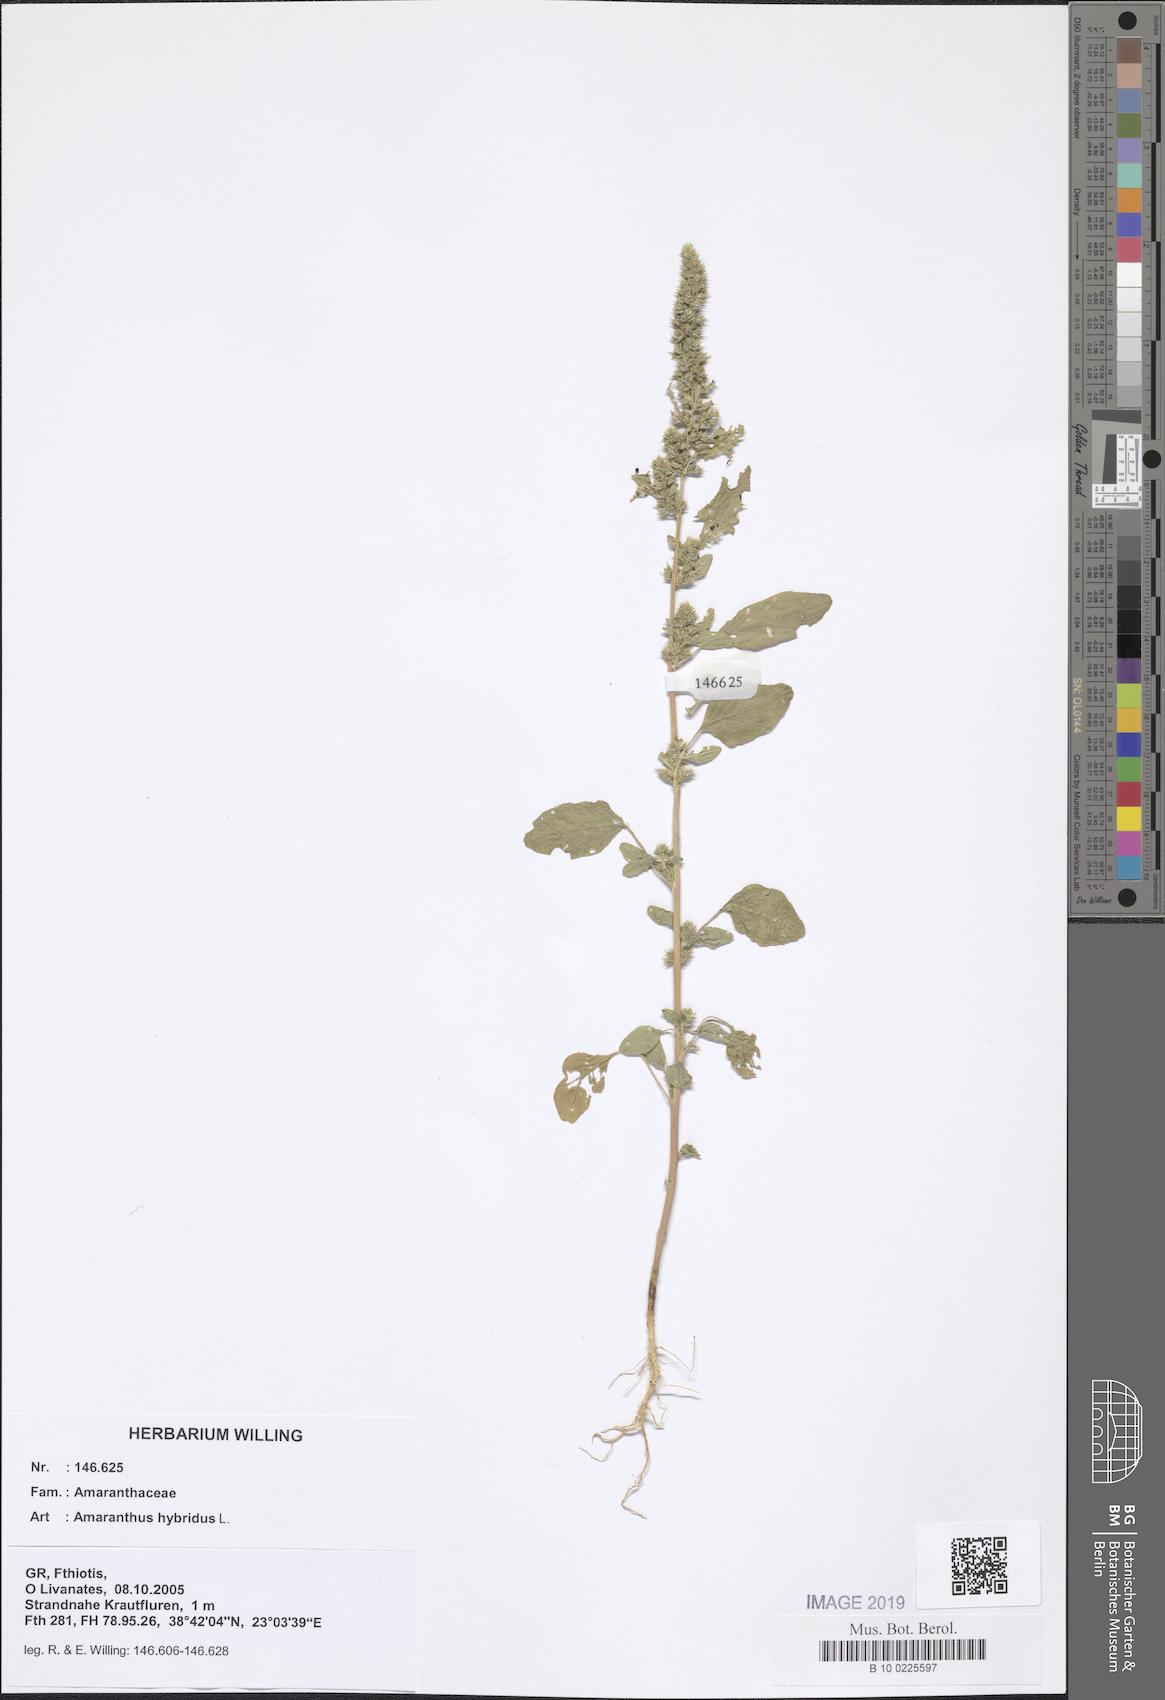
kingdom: Plantae
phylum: Tracheophyta
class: Magnoliopsida
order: Caryophyllales
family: Amaranthaceae
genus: Amaranthus
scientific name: Amaranthus hybridus
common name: Green amaranth
